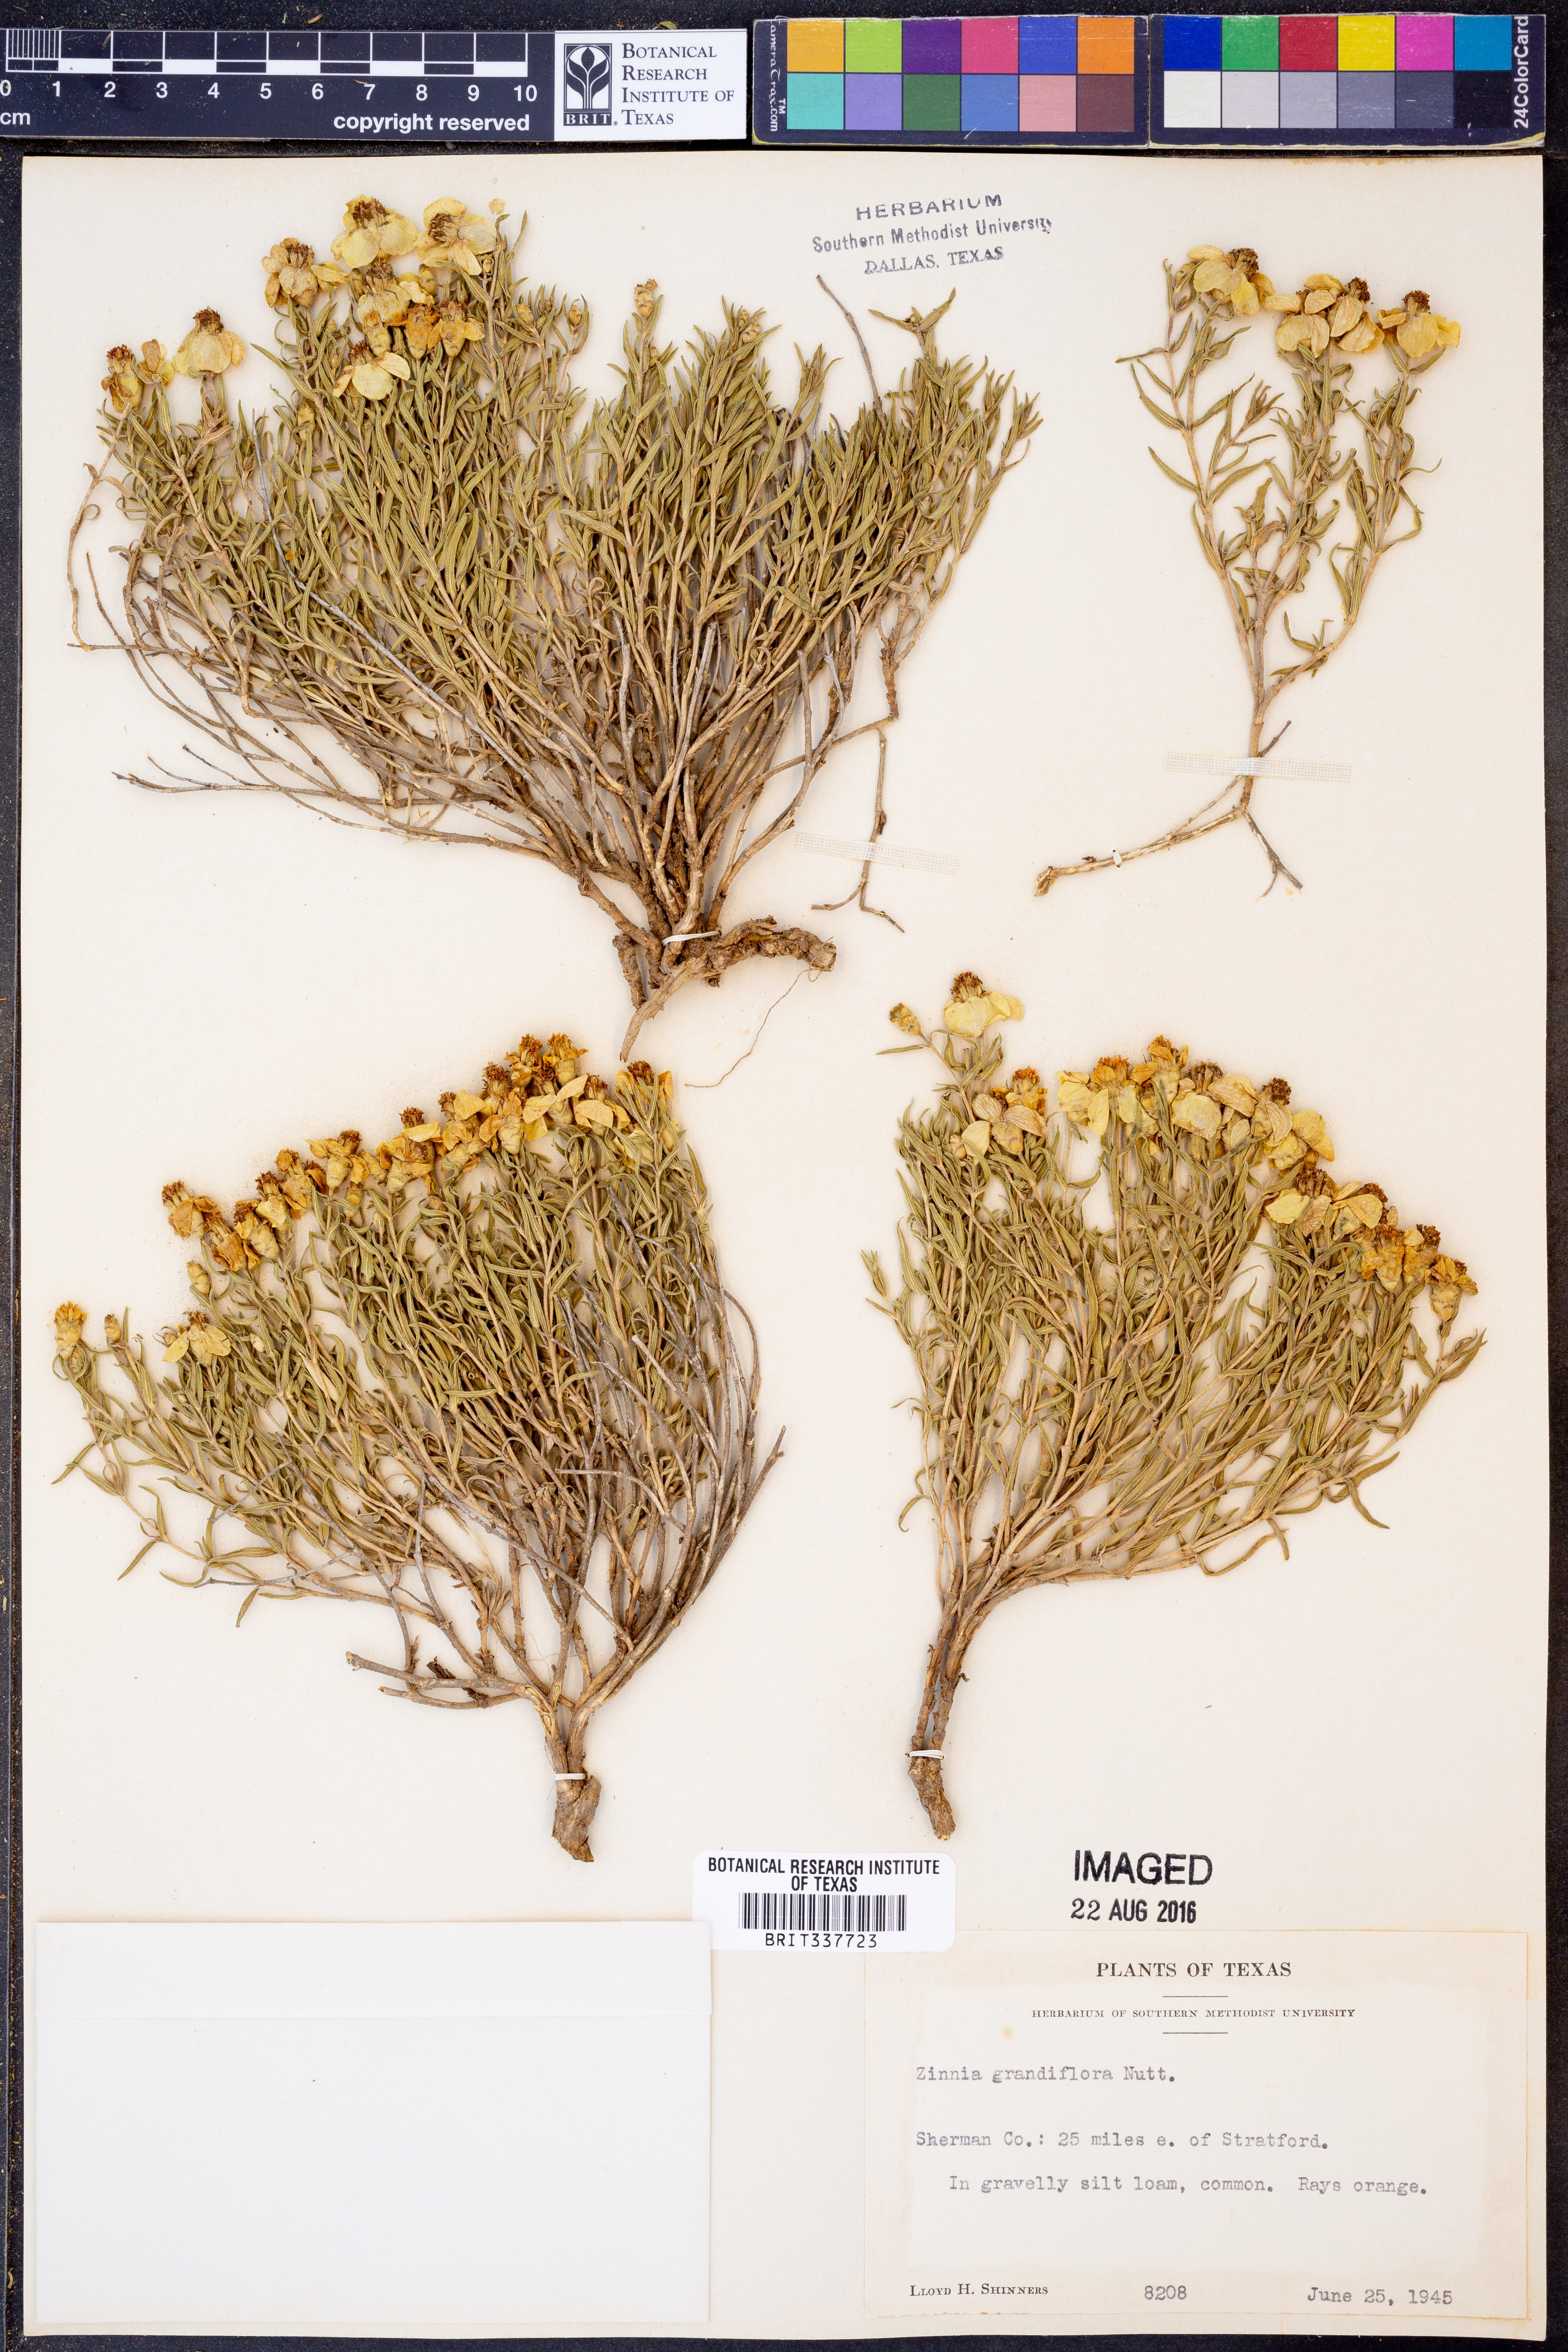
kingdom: Plantae
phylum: Tracheophyta
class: Magnoliopsida
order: Asterales
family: Asteraceae
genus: Zinnia
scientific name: Zinnia grandiflora
